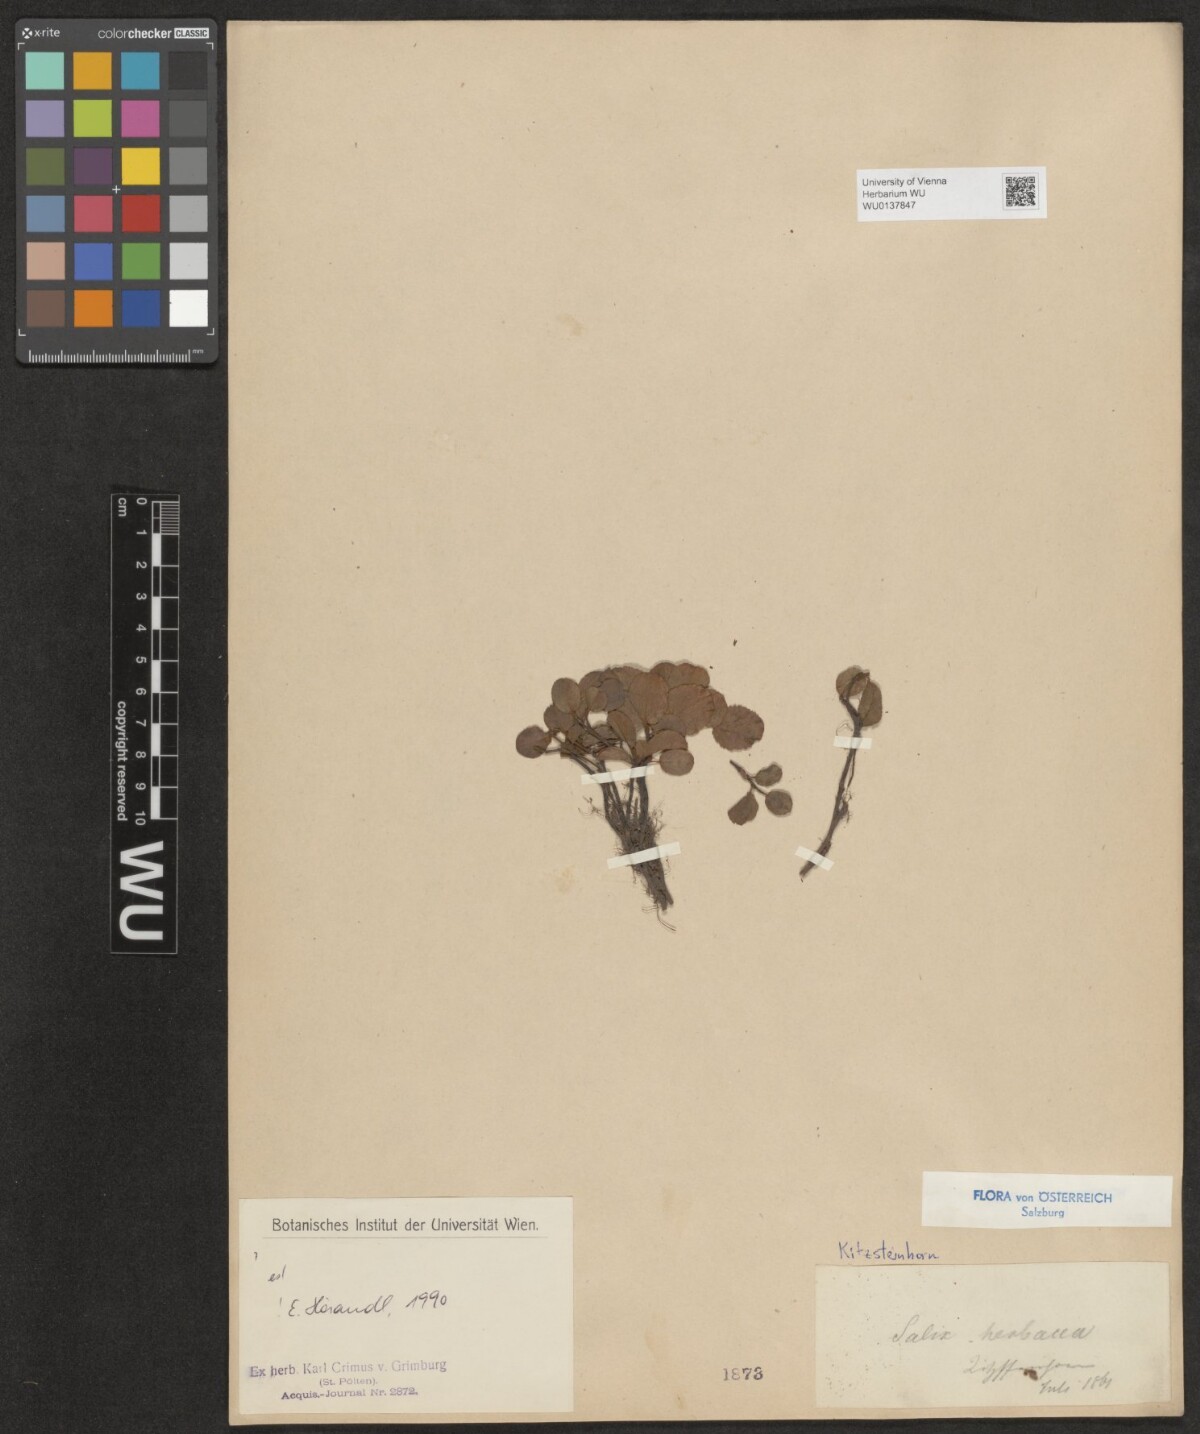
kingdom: Plantae
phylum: Tracheophyta
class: Magnoliopsida
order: Malpighiales
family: Salicaceae
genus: Salix
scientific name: Salix herbacea
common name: Dwarf willow
